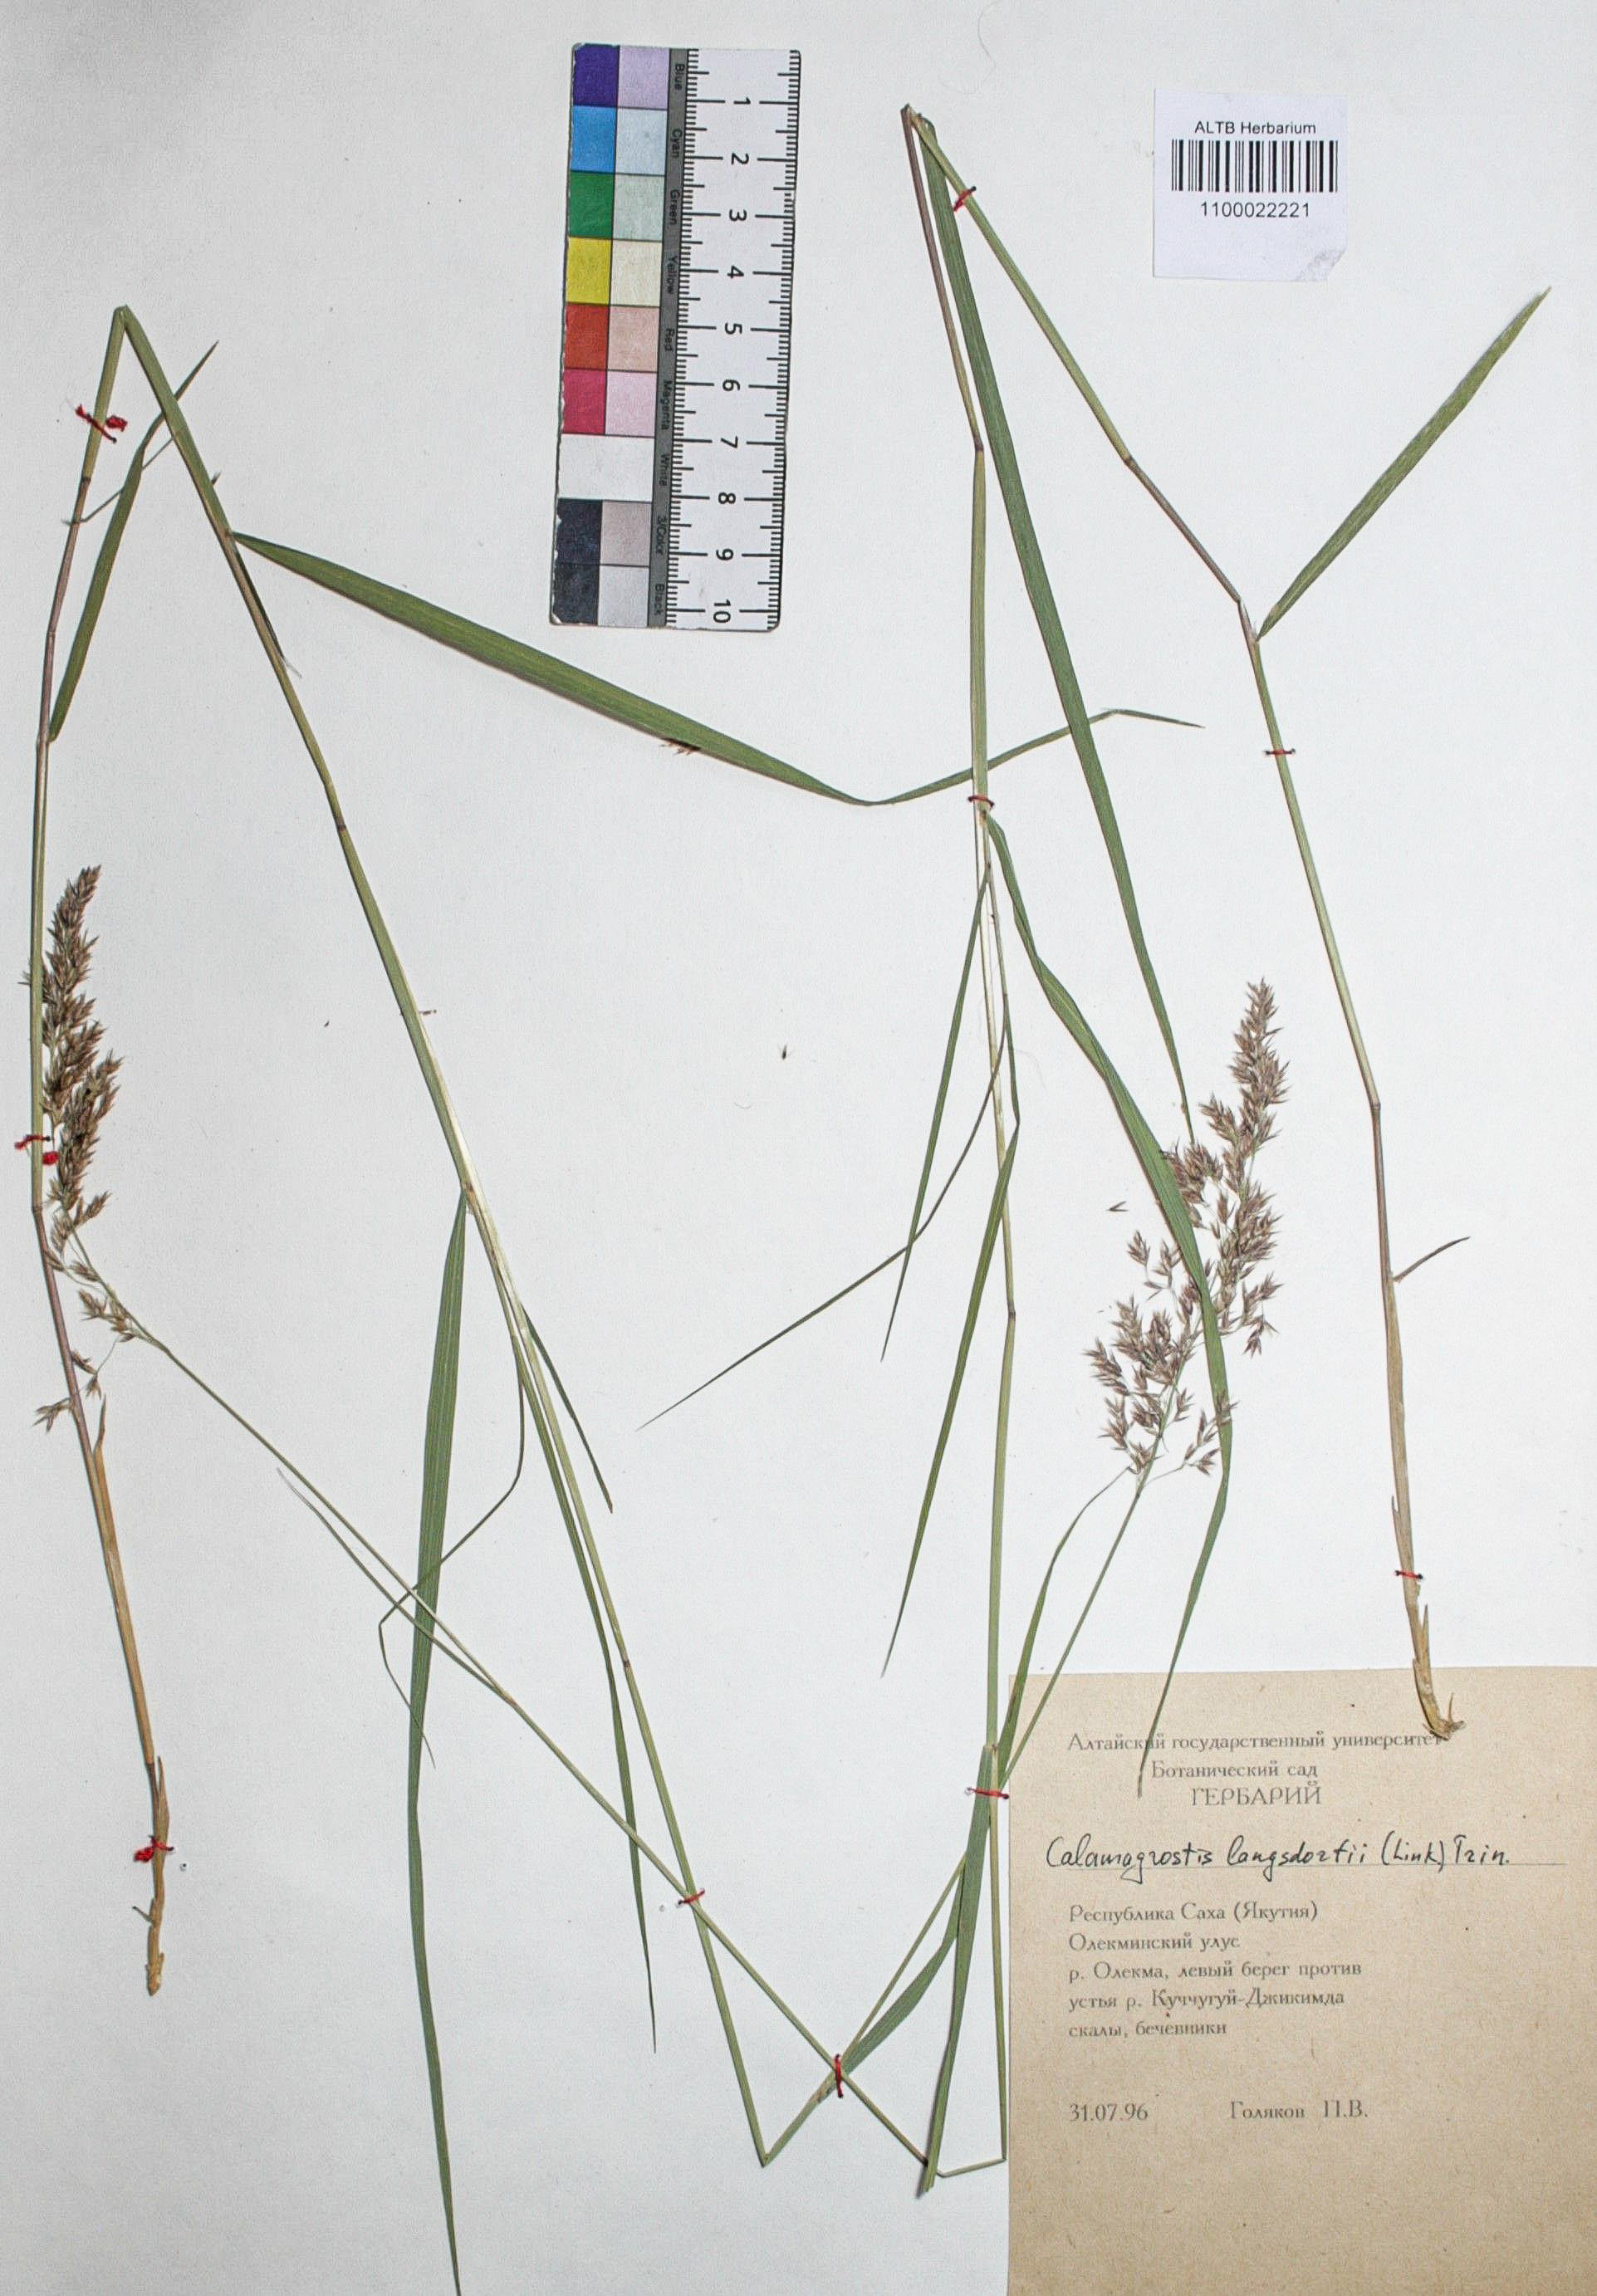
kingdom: Plantae
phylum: Tracheophyta
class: Liliopsida
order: Poales
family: Poaceae
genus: Calamagrostis
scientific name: Calamagrostis purpurea
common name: Scandinavian small-reed
